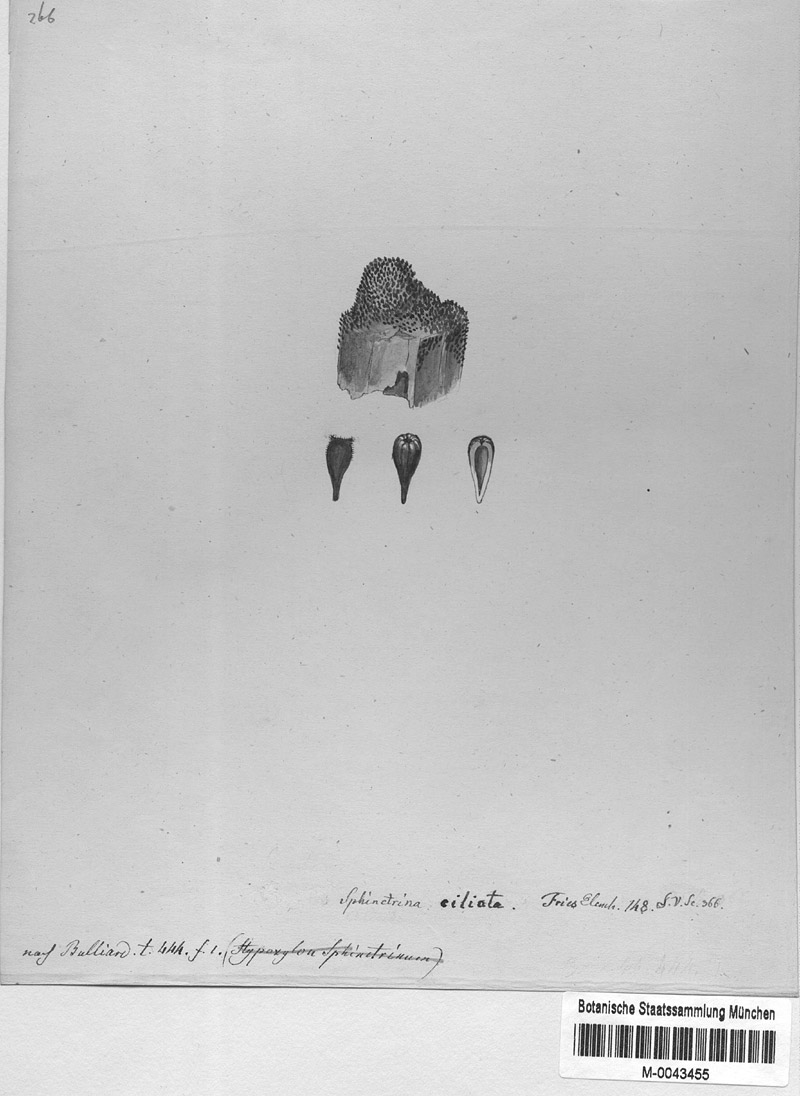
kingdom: Fungi
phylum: Ascomycota
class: Pezizomycetes
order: Pezizales
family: Pyronemataceae
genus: Cheilymenia
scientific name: Cheilymenia ciliata
